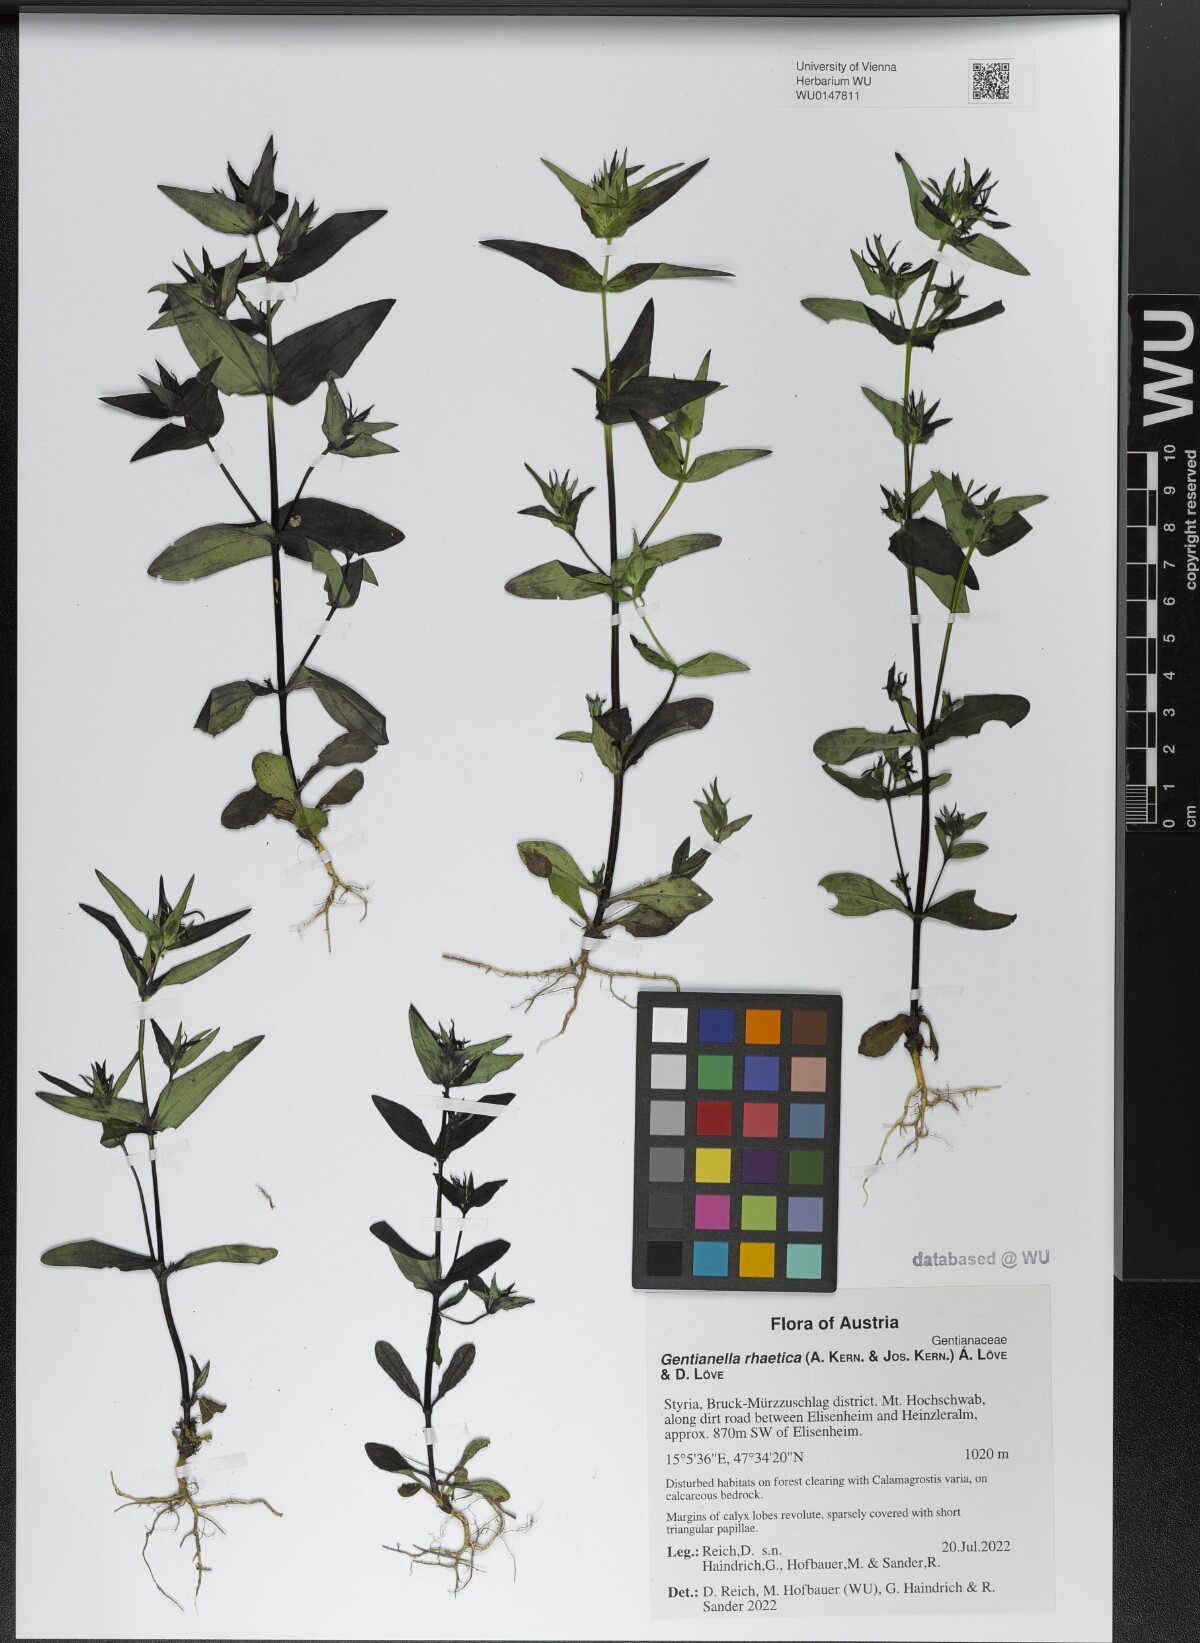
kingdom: Plantae
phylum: Tracheophyta
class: Magnoliopsida
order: Gentianales
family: Gentianaceae
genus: Gentianella
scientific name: Gentianella rhaetica
